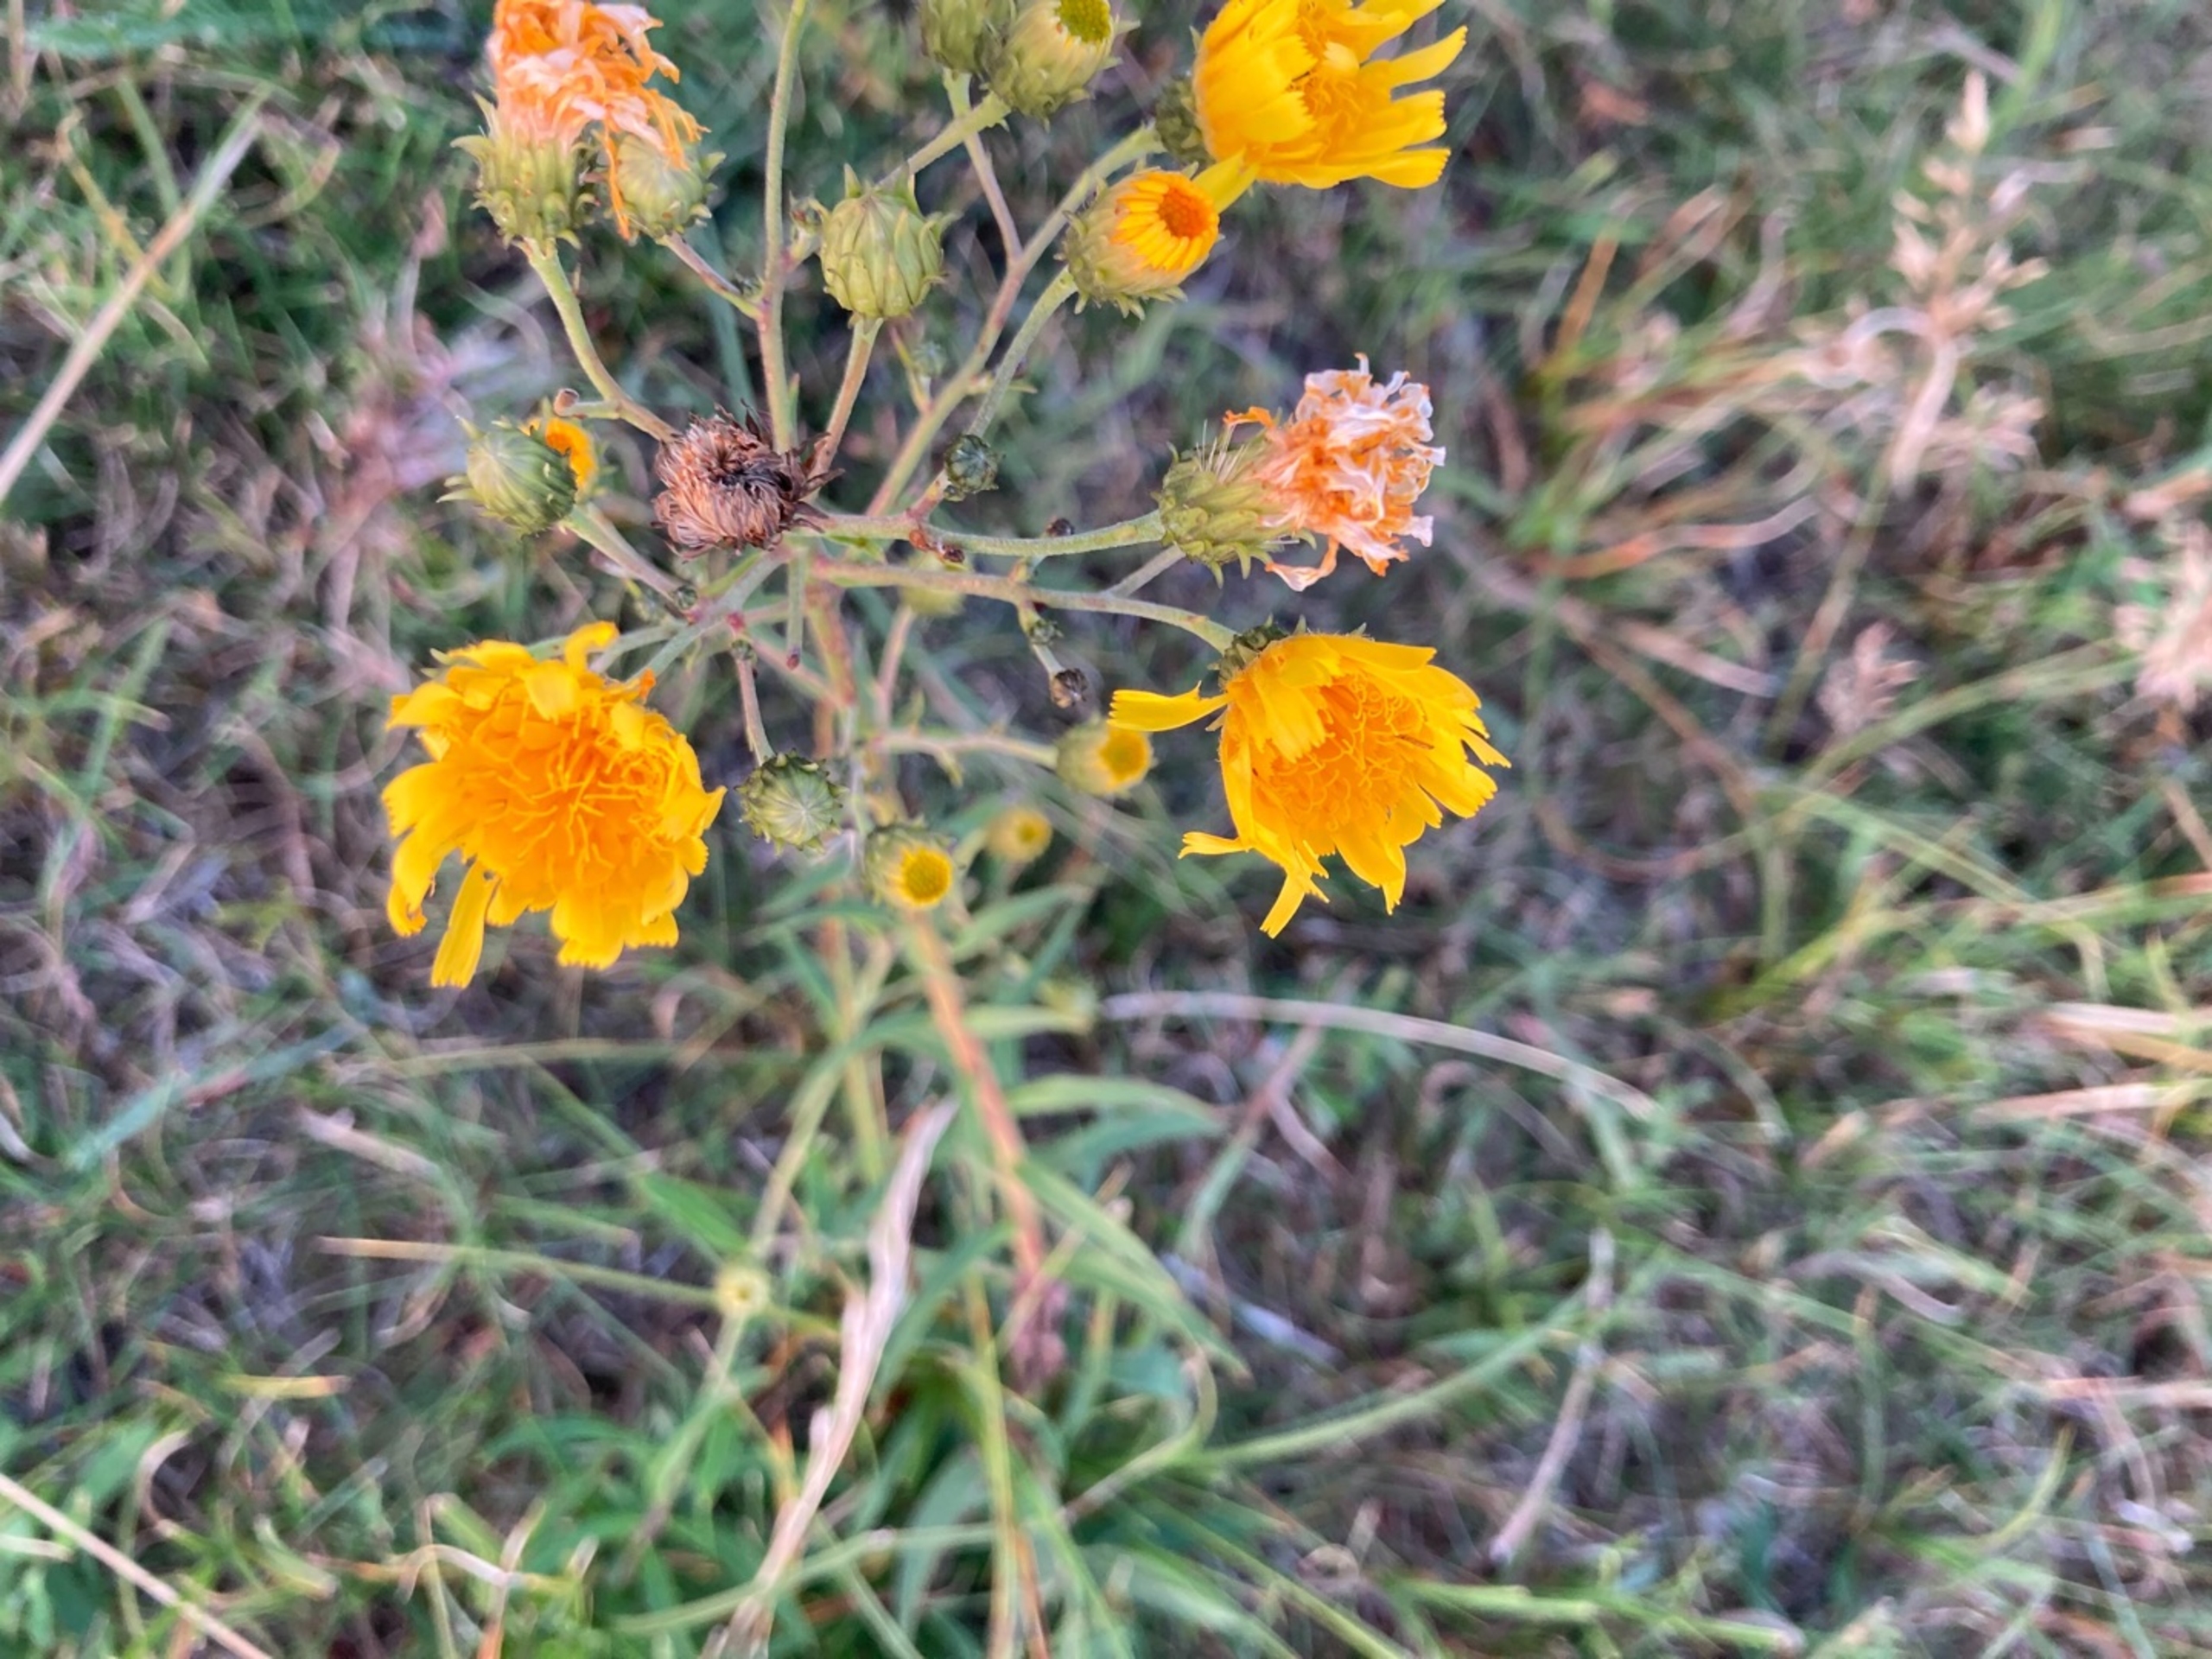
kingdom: Plantae
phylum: Tracheophyta
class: Magnoliopsida
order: Asterales
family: Asteraceae
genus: Hieracium
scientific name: Hieracium umbellatum
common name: Smalbladet høgeurt
